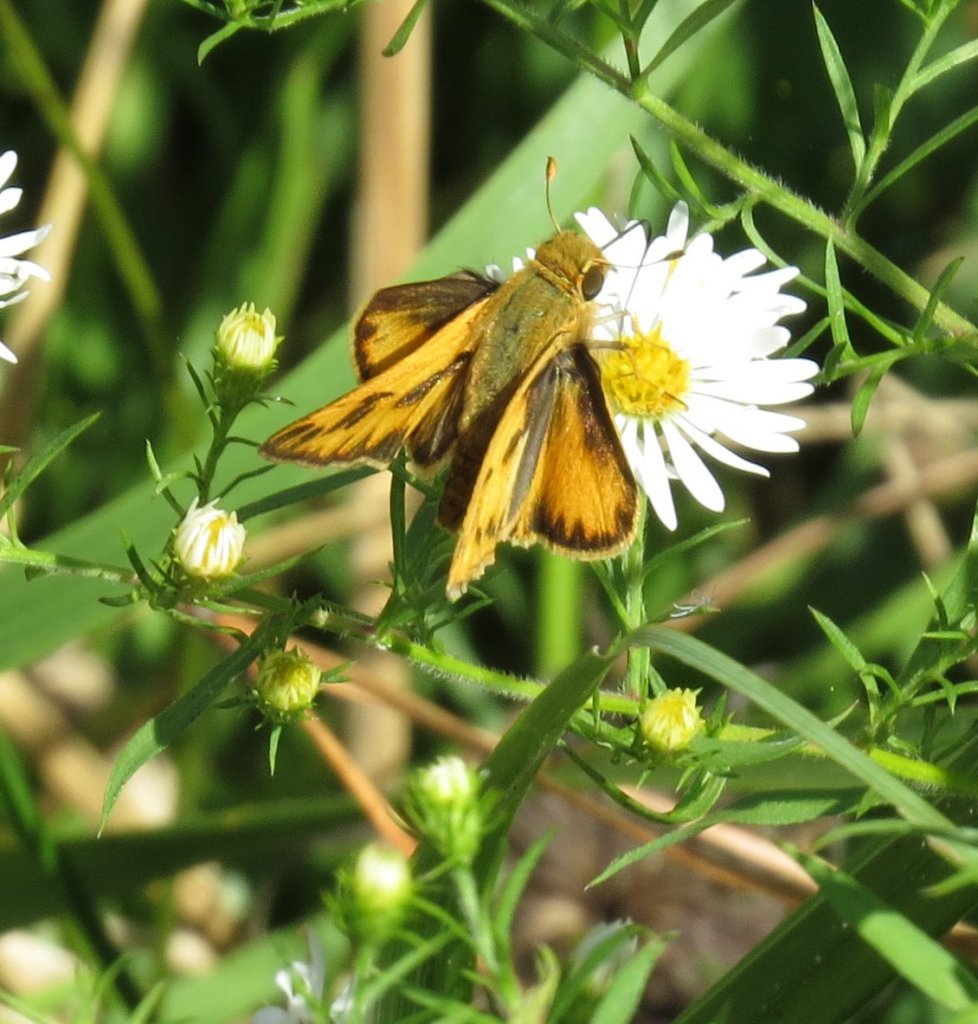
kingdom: Animalia
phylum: Arthropoda
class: Insecta
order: Lepidoptera
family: Hesperiidae
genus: Hylephila
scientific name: Hylephila phyleus
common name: Fiery Skipper
